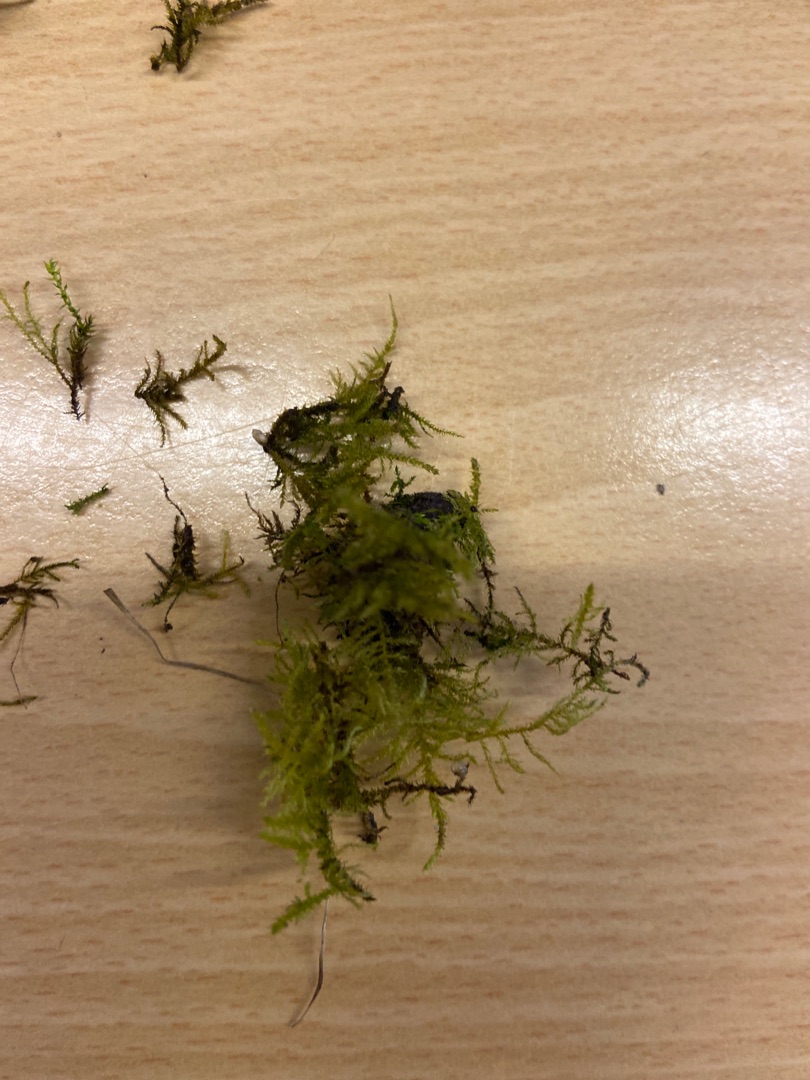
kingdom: Plantae
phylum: Bryophyta
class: Bryopsida
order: Hypnales
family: Brachytheciaceae
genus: Kindbergia
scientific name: Kindbergia praelonga
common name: Forskelligbladet vortetand
